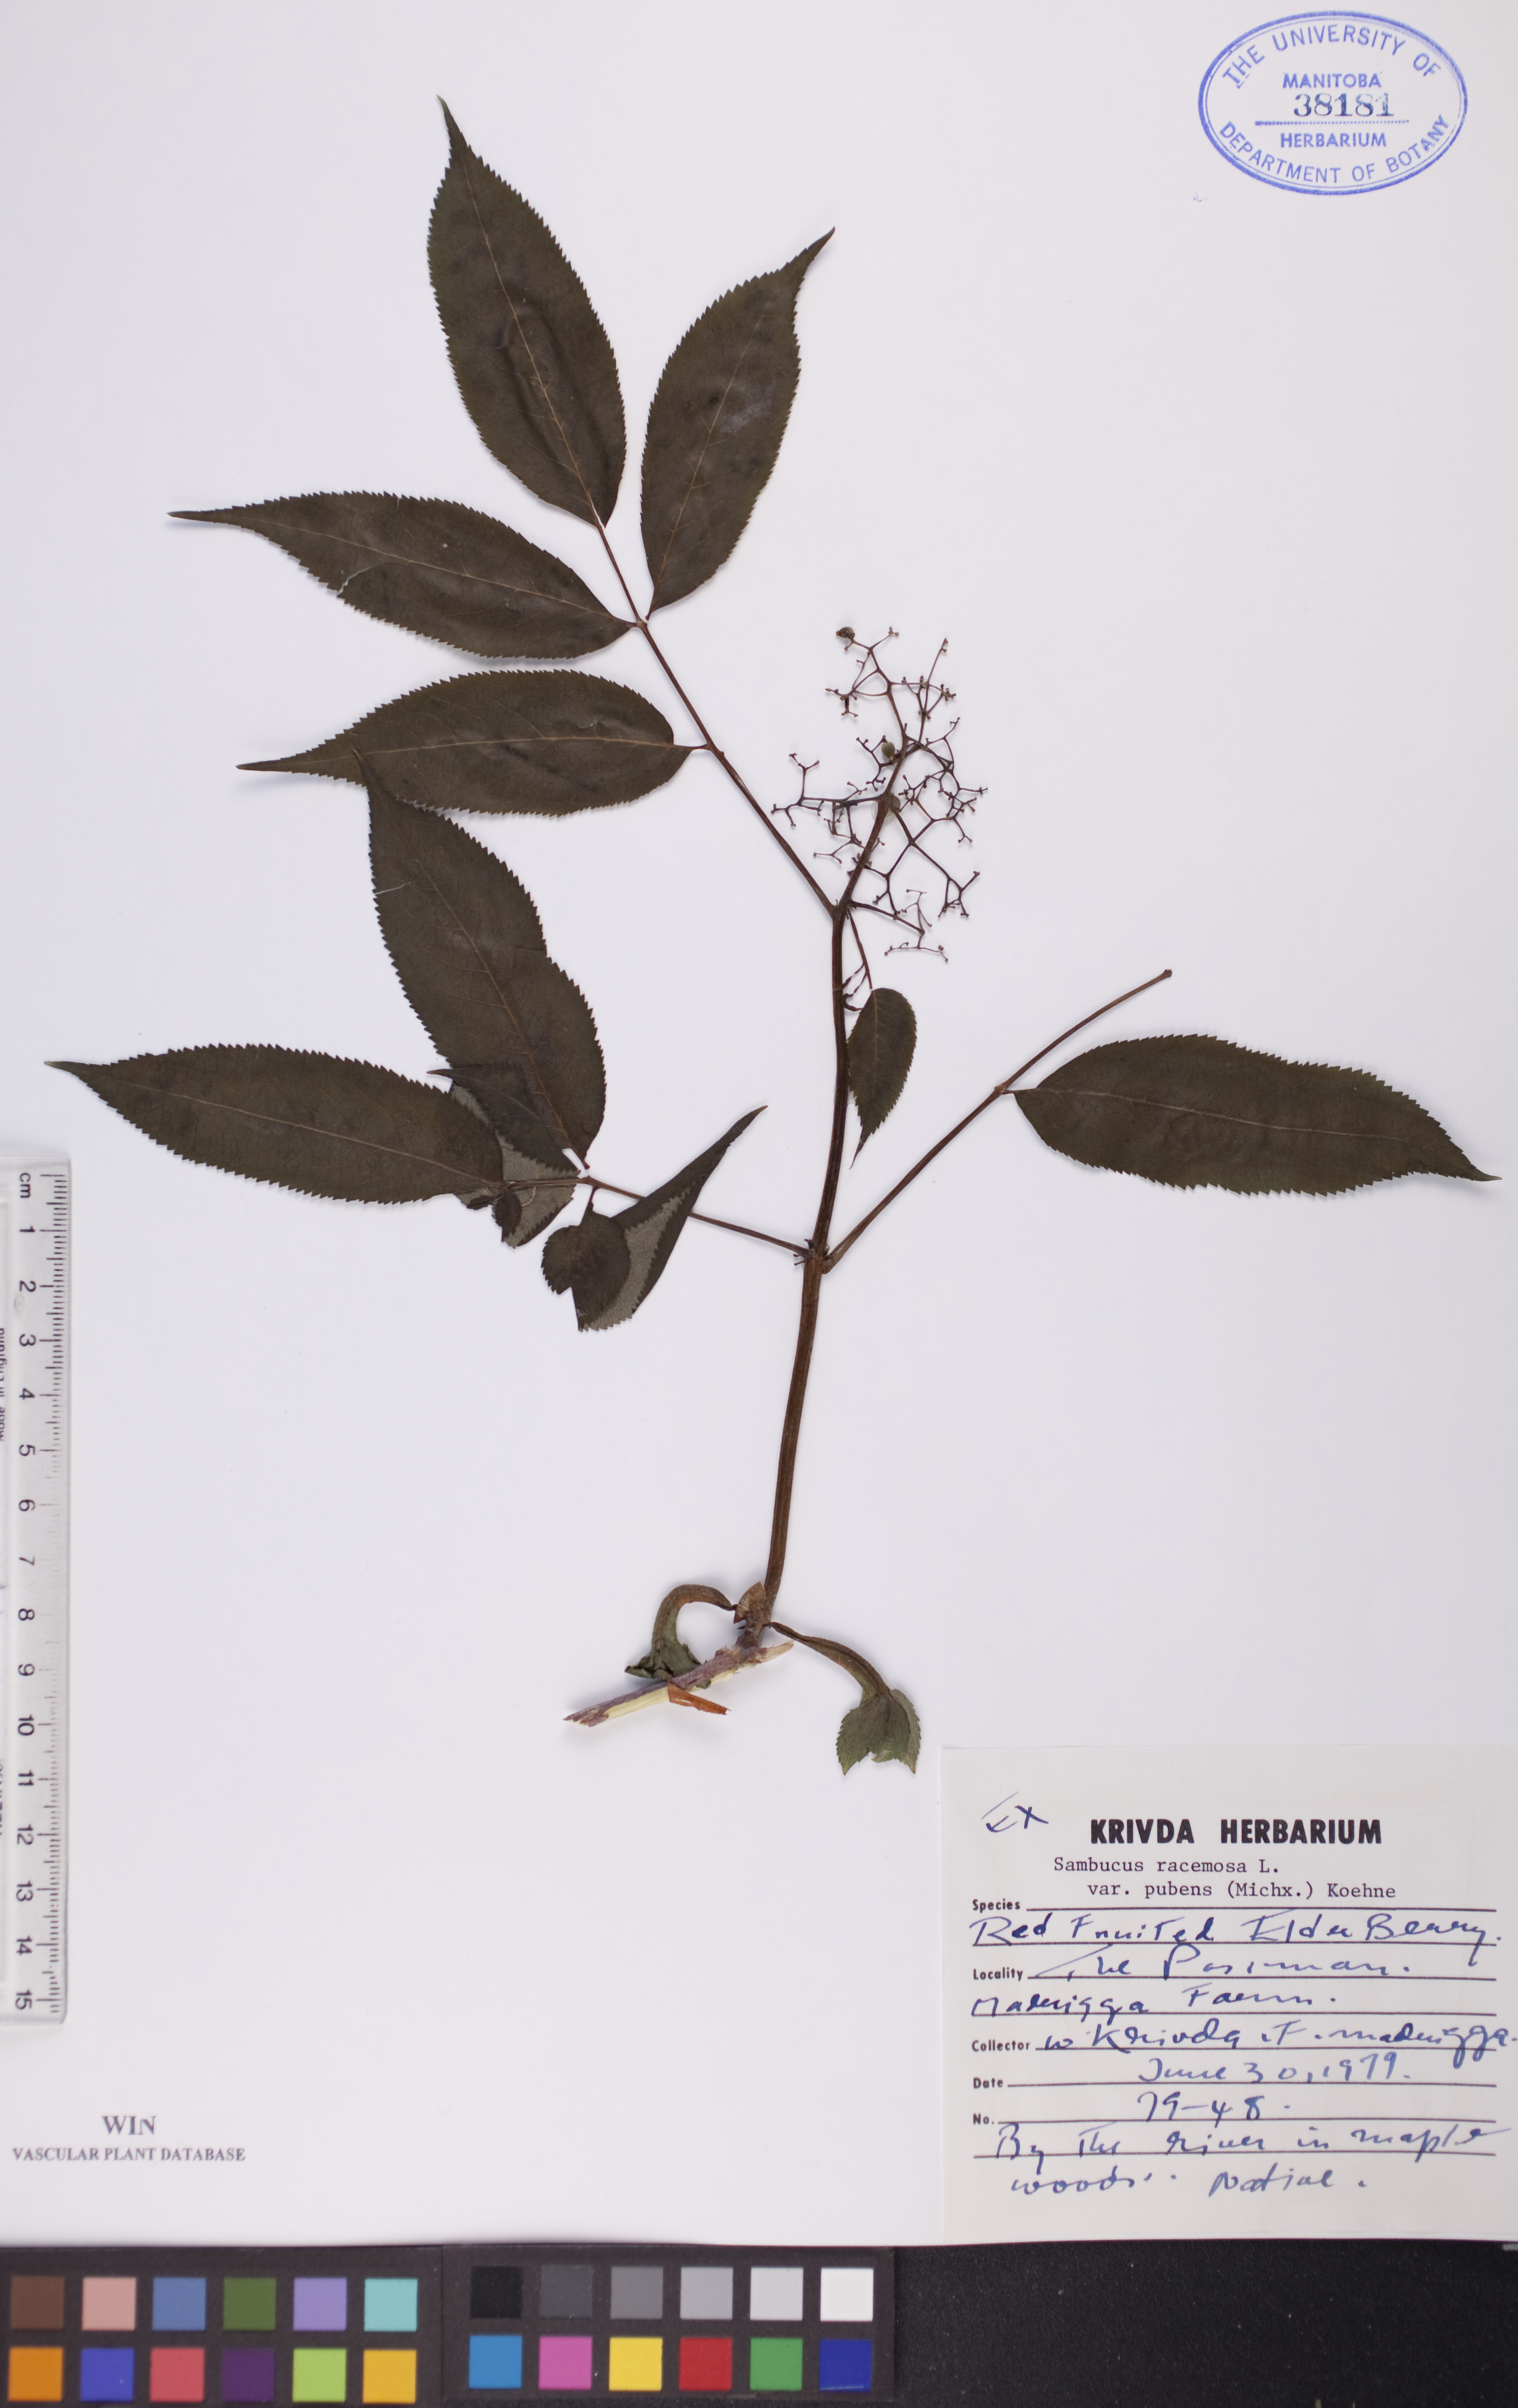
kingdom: Plantae
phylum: Tracheophyta
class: Magnoliopsida
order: Dipsacales
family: Viburnaceae
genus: Sambucus
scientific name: Sambucus racemosa
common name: Red-berried elder
